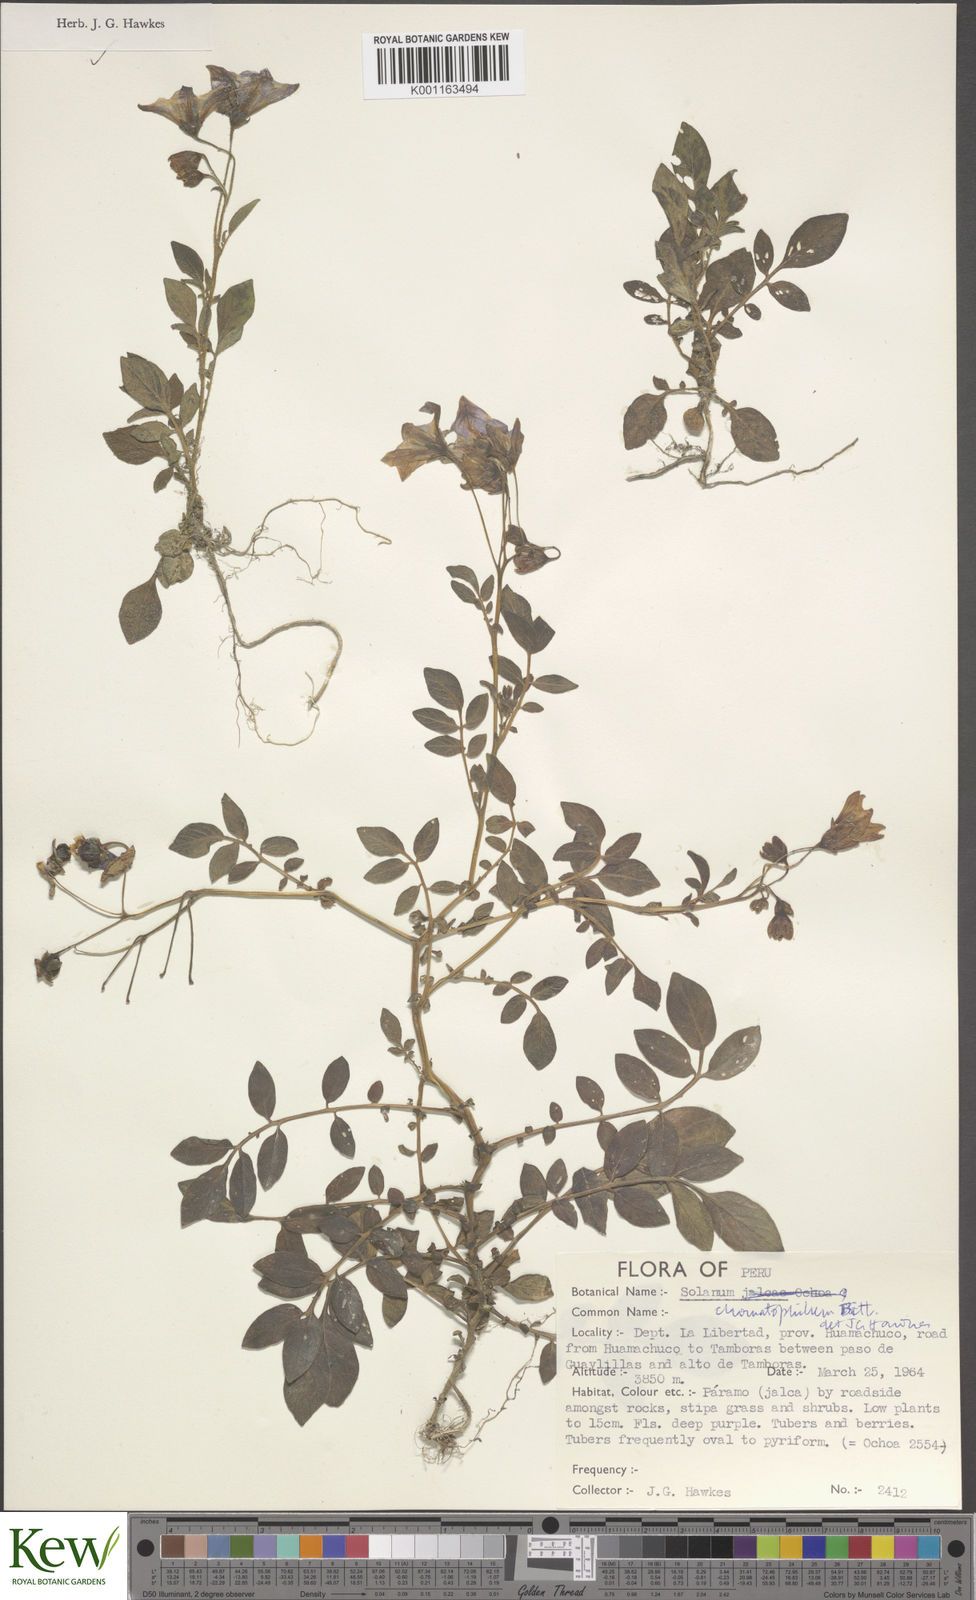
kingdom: Plantae
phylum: Tracheophyta
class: Magnoliopsida
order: Solanales
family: Solanaceae
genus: Solanum
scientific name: Solanum chomatophilum
